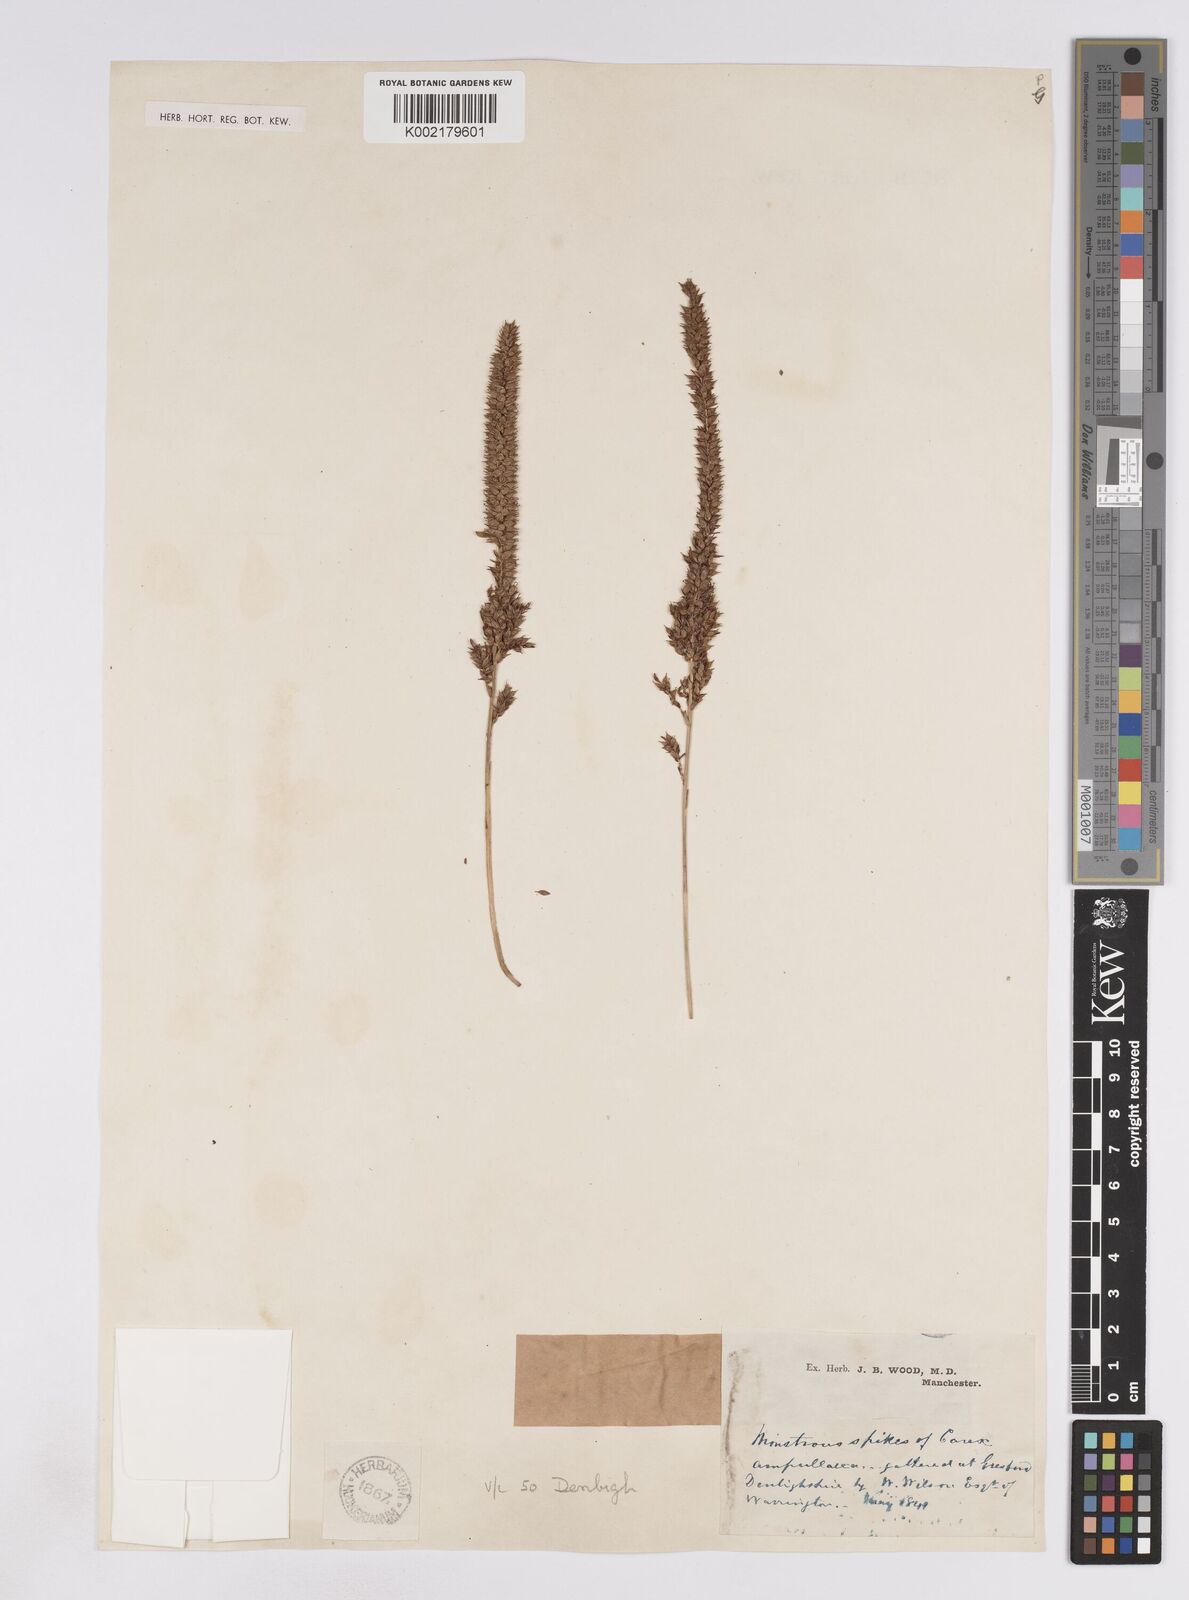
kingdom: Plantae
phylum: Tracheophyta
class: Liliopsida
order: Poales
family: Cyperaceae
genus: Carex
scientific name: Carex rostrata
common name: Bottle sedge
